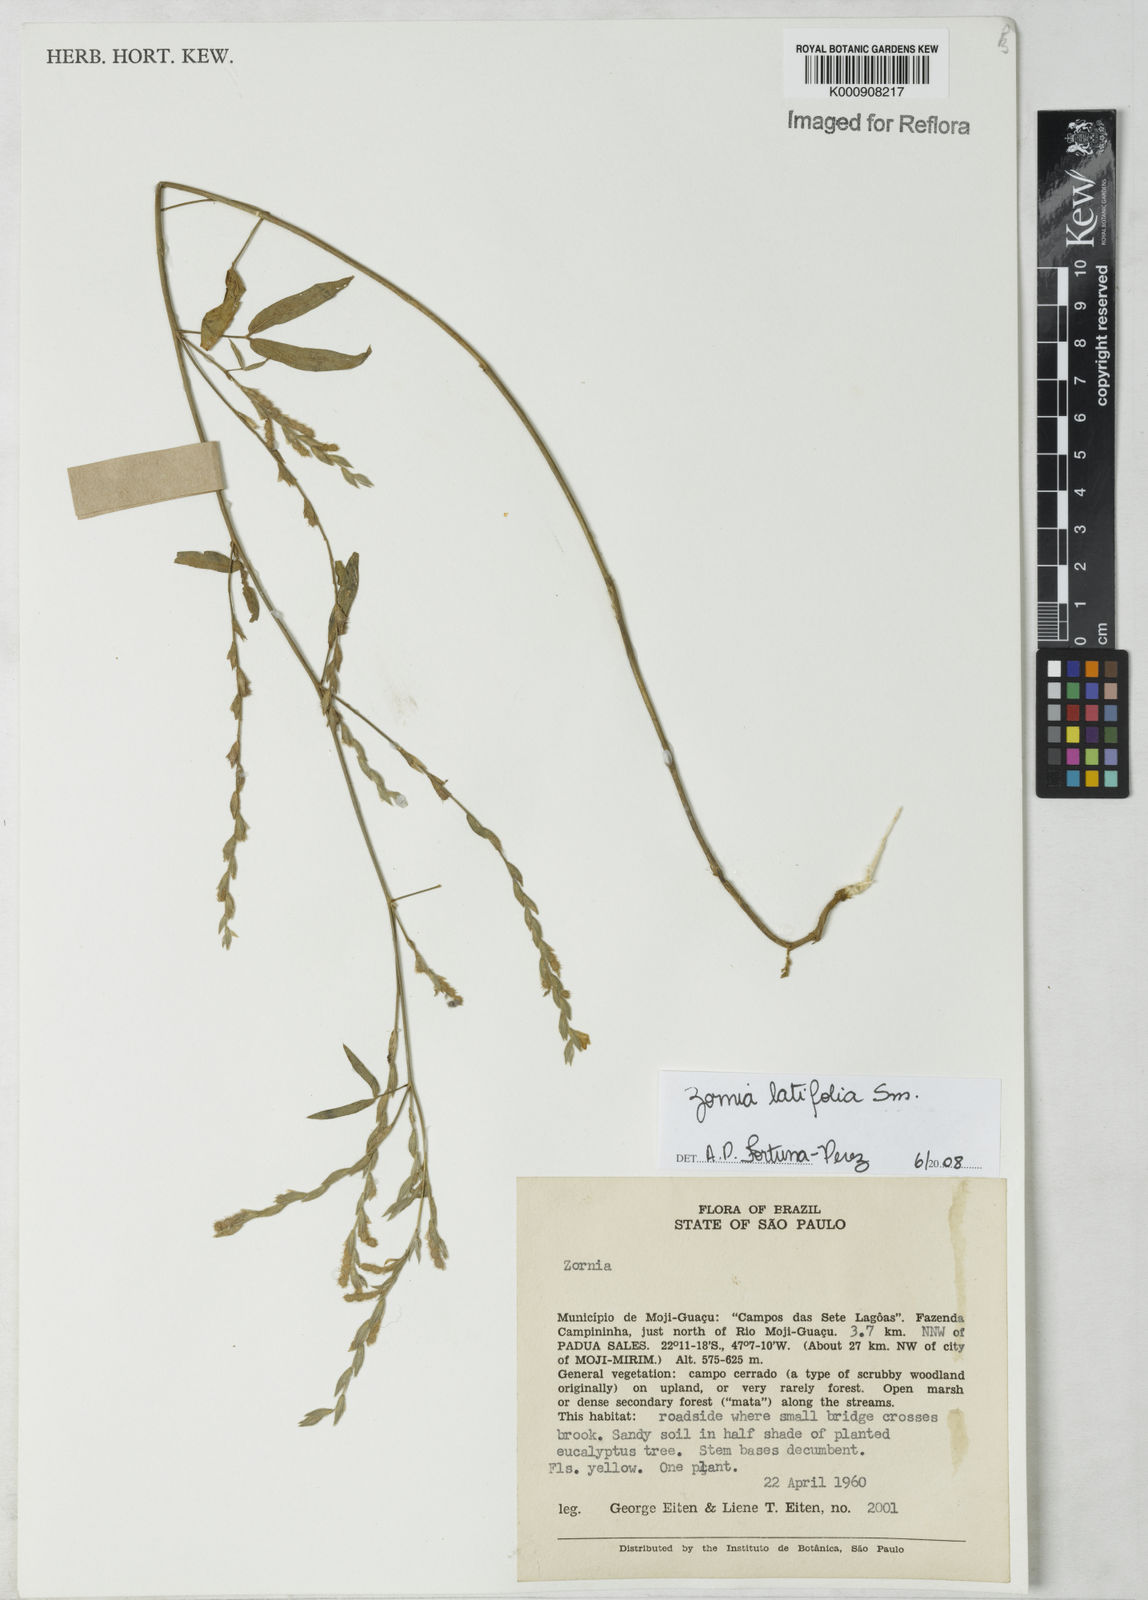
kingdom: Plantae
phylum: Tracheophyta
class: Magnoliopsida
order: Fabales
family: Fabaceae
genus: Zornia
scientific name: Zornia latifolia
